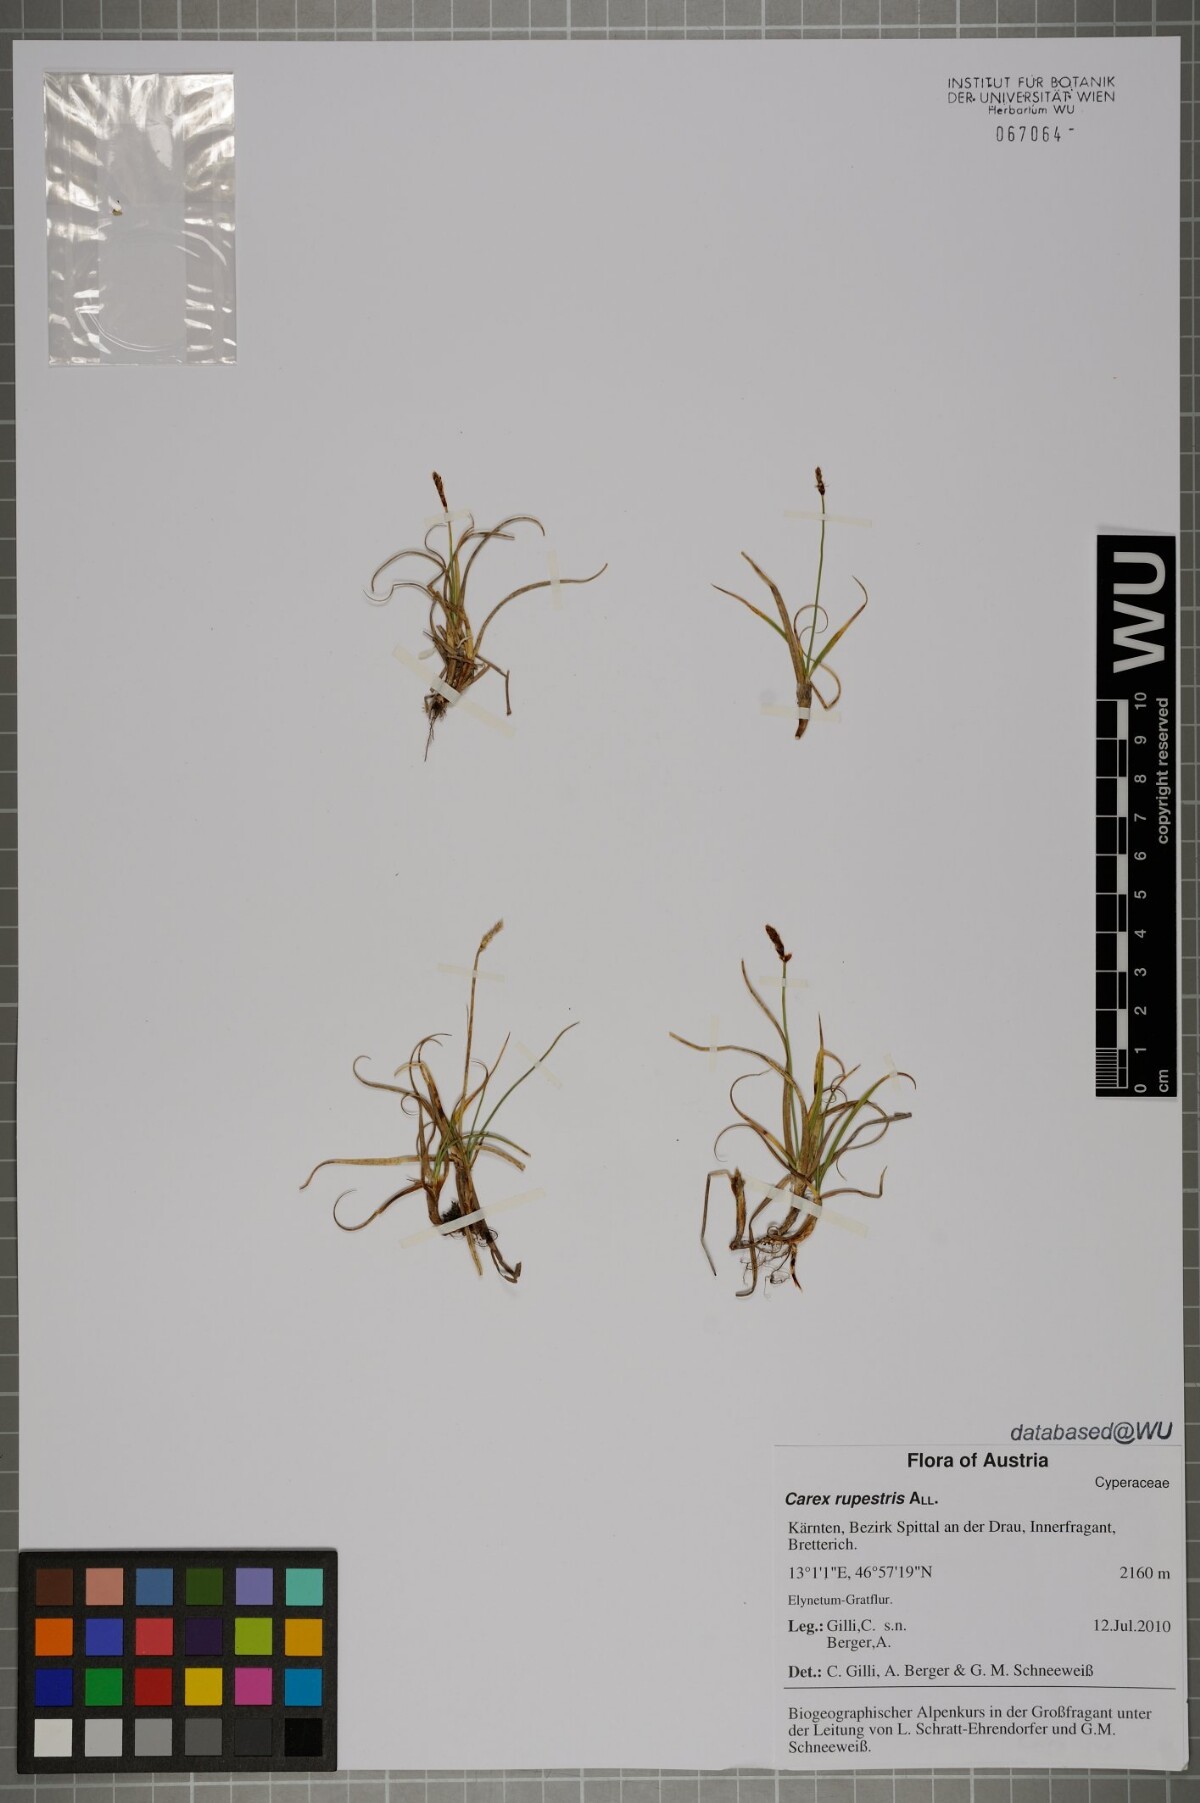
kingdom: Plantae
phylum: Tracheophyta
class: Liliopsida
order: Poales
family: Cyperaceae
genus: Carex
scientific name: Carex rupestris
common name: Rock sedge
